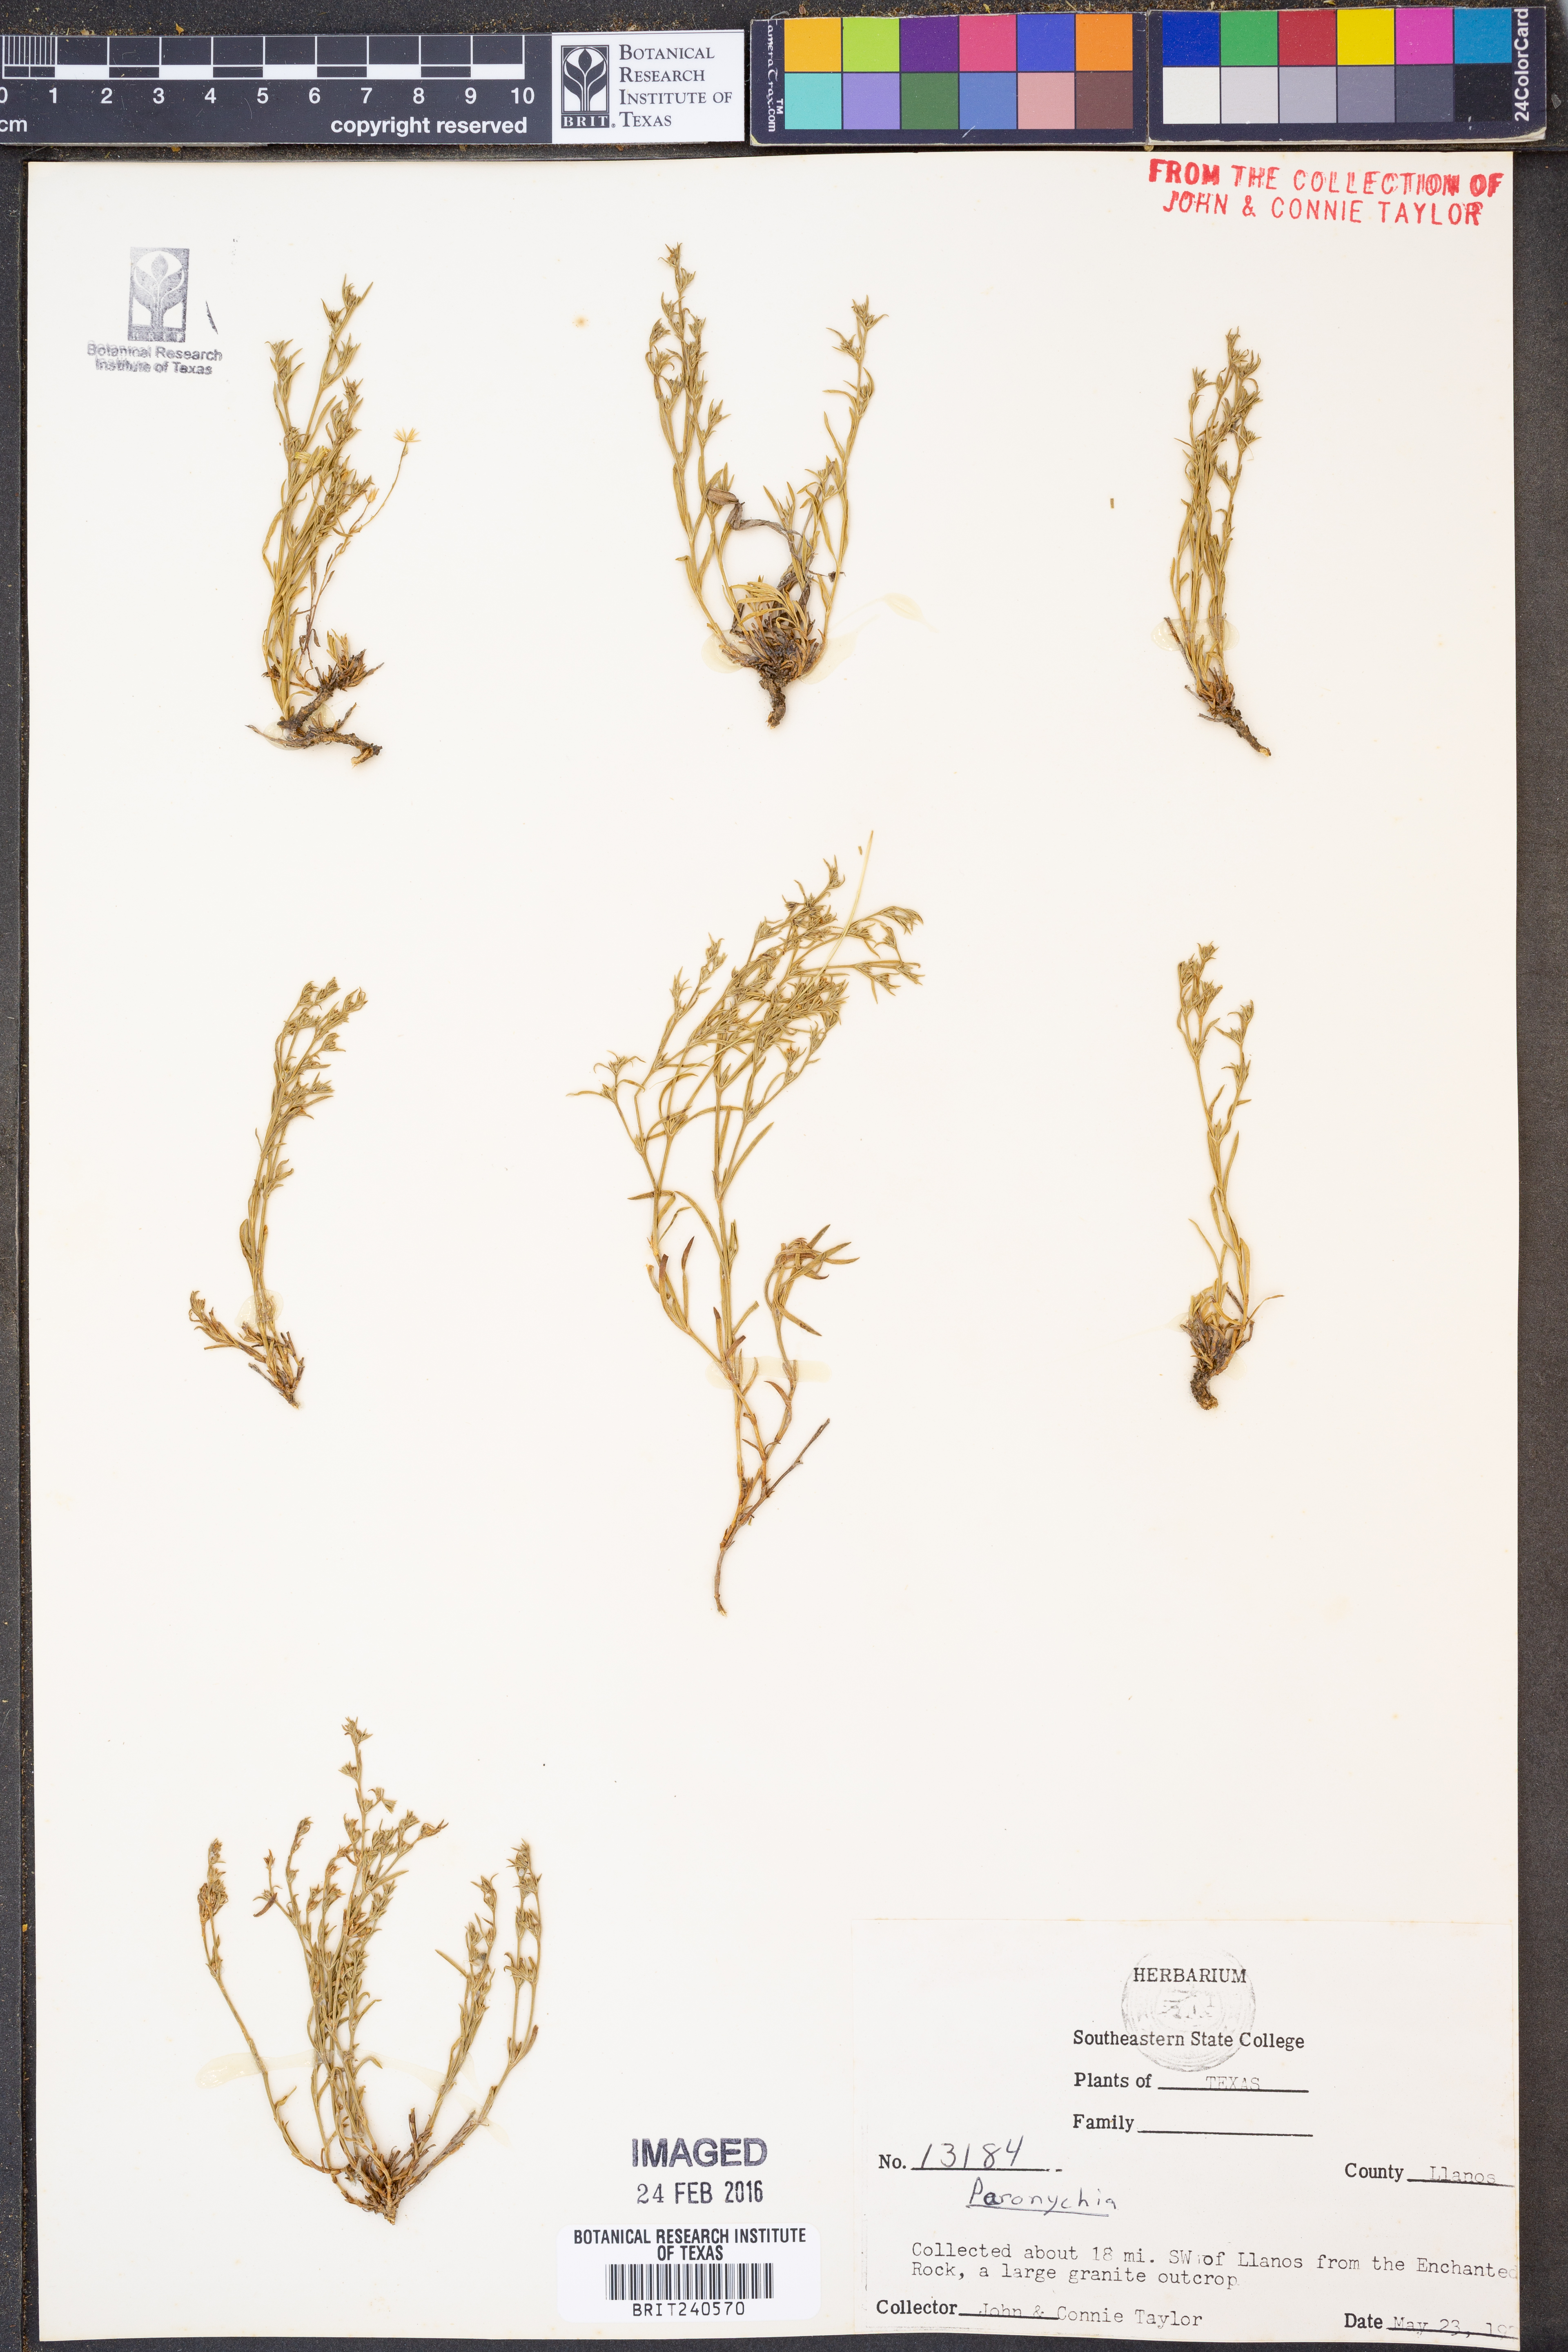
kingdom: Plantae
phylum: Tracheophyta
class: Magnoliopsida
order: Caryophyllales
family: Caryophyllaceae
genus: Paronychia
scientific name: Paronychia
